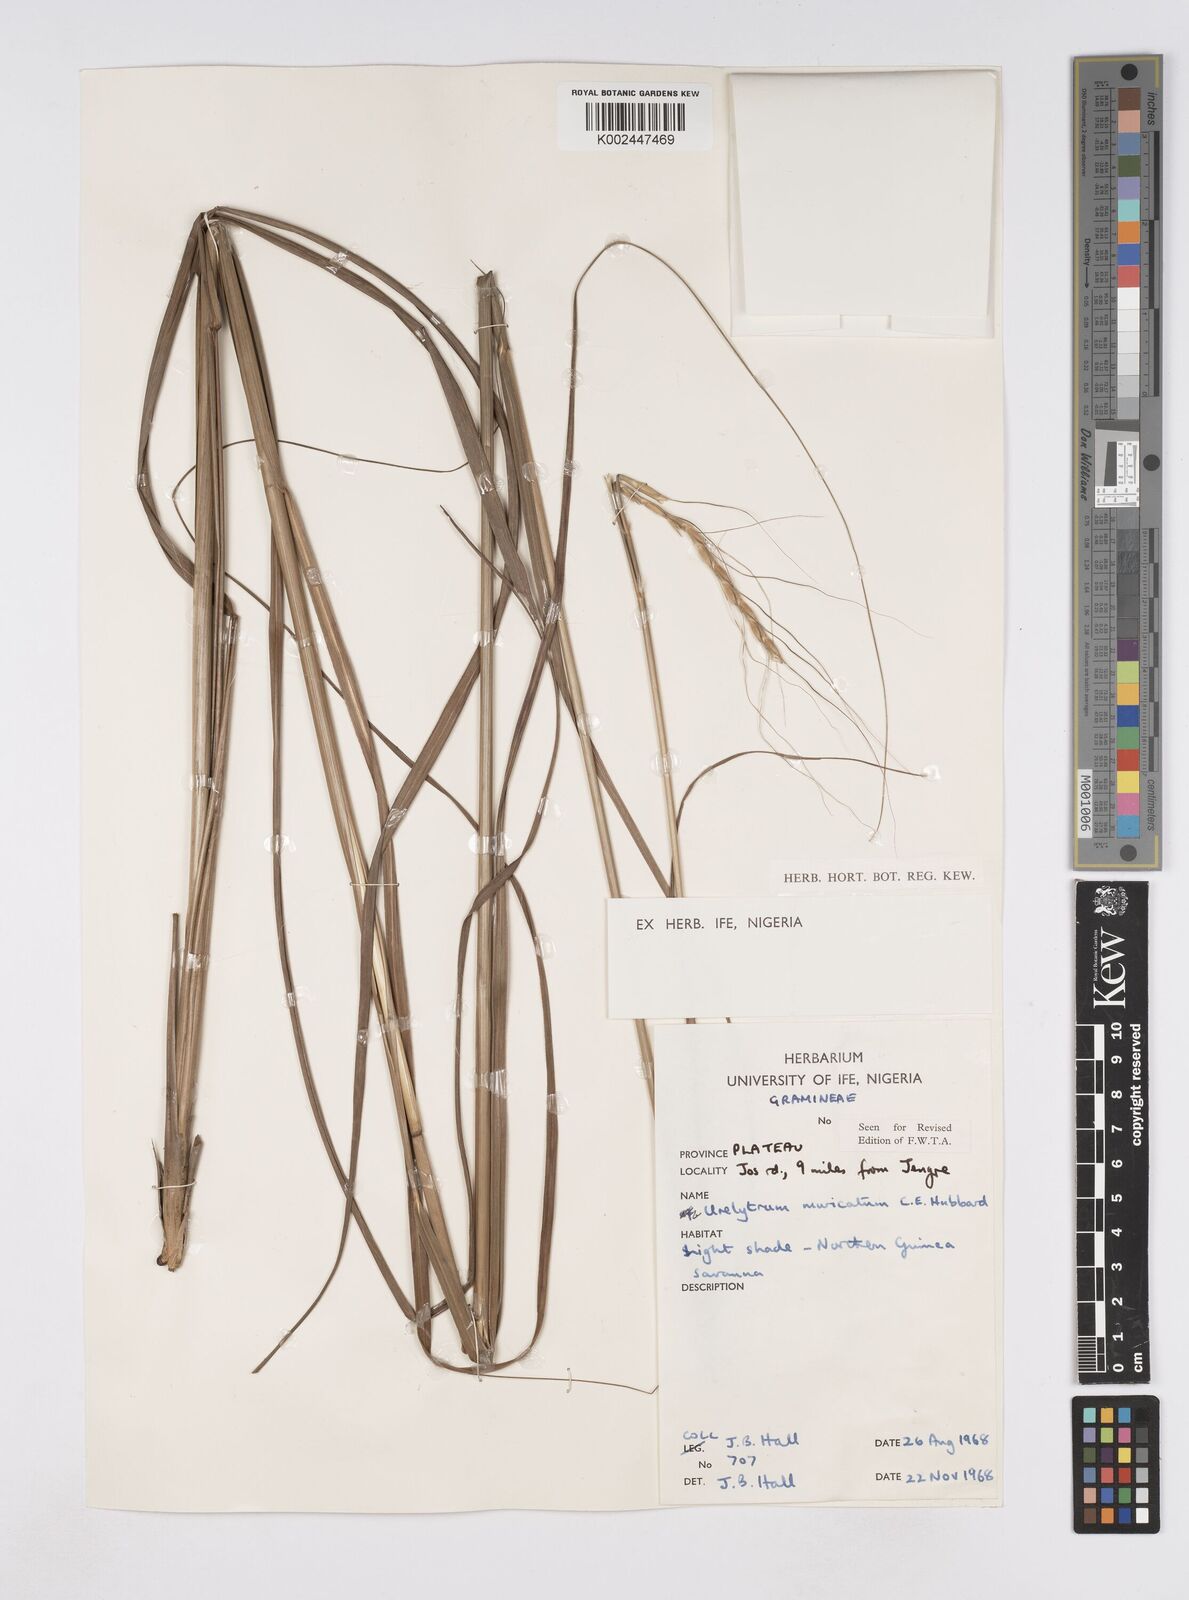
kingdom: Plantae
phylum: Tracheophyta
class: Liliopsida
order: Poales
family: Poaceae
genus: Urelytrum
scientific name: Urelytrum muricatum
